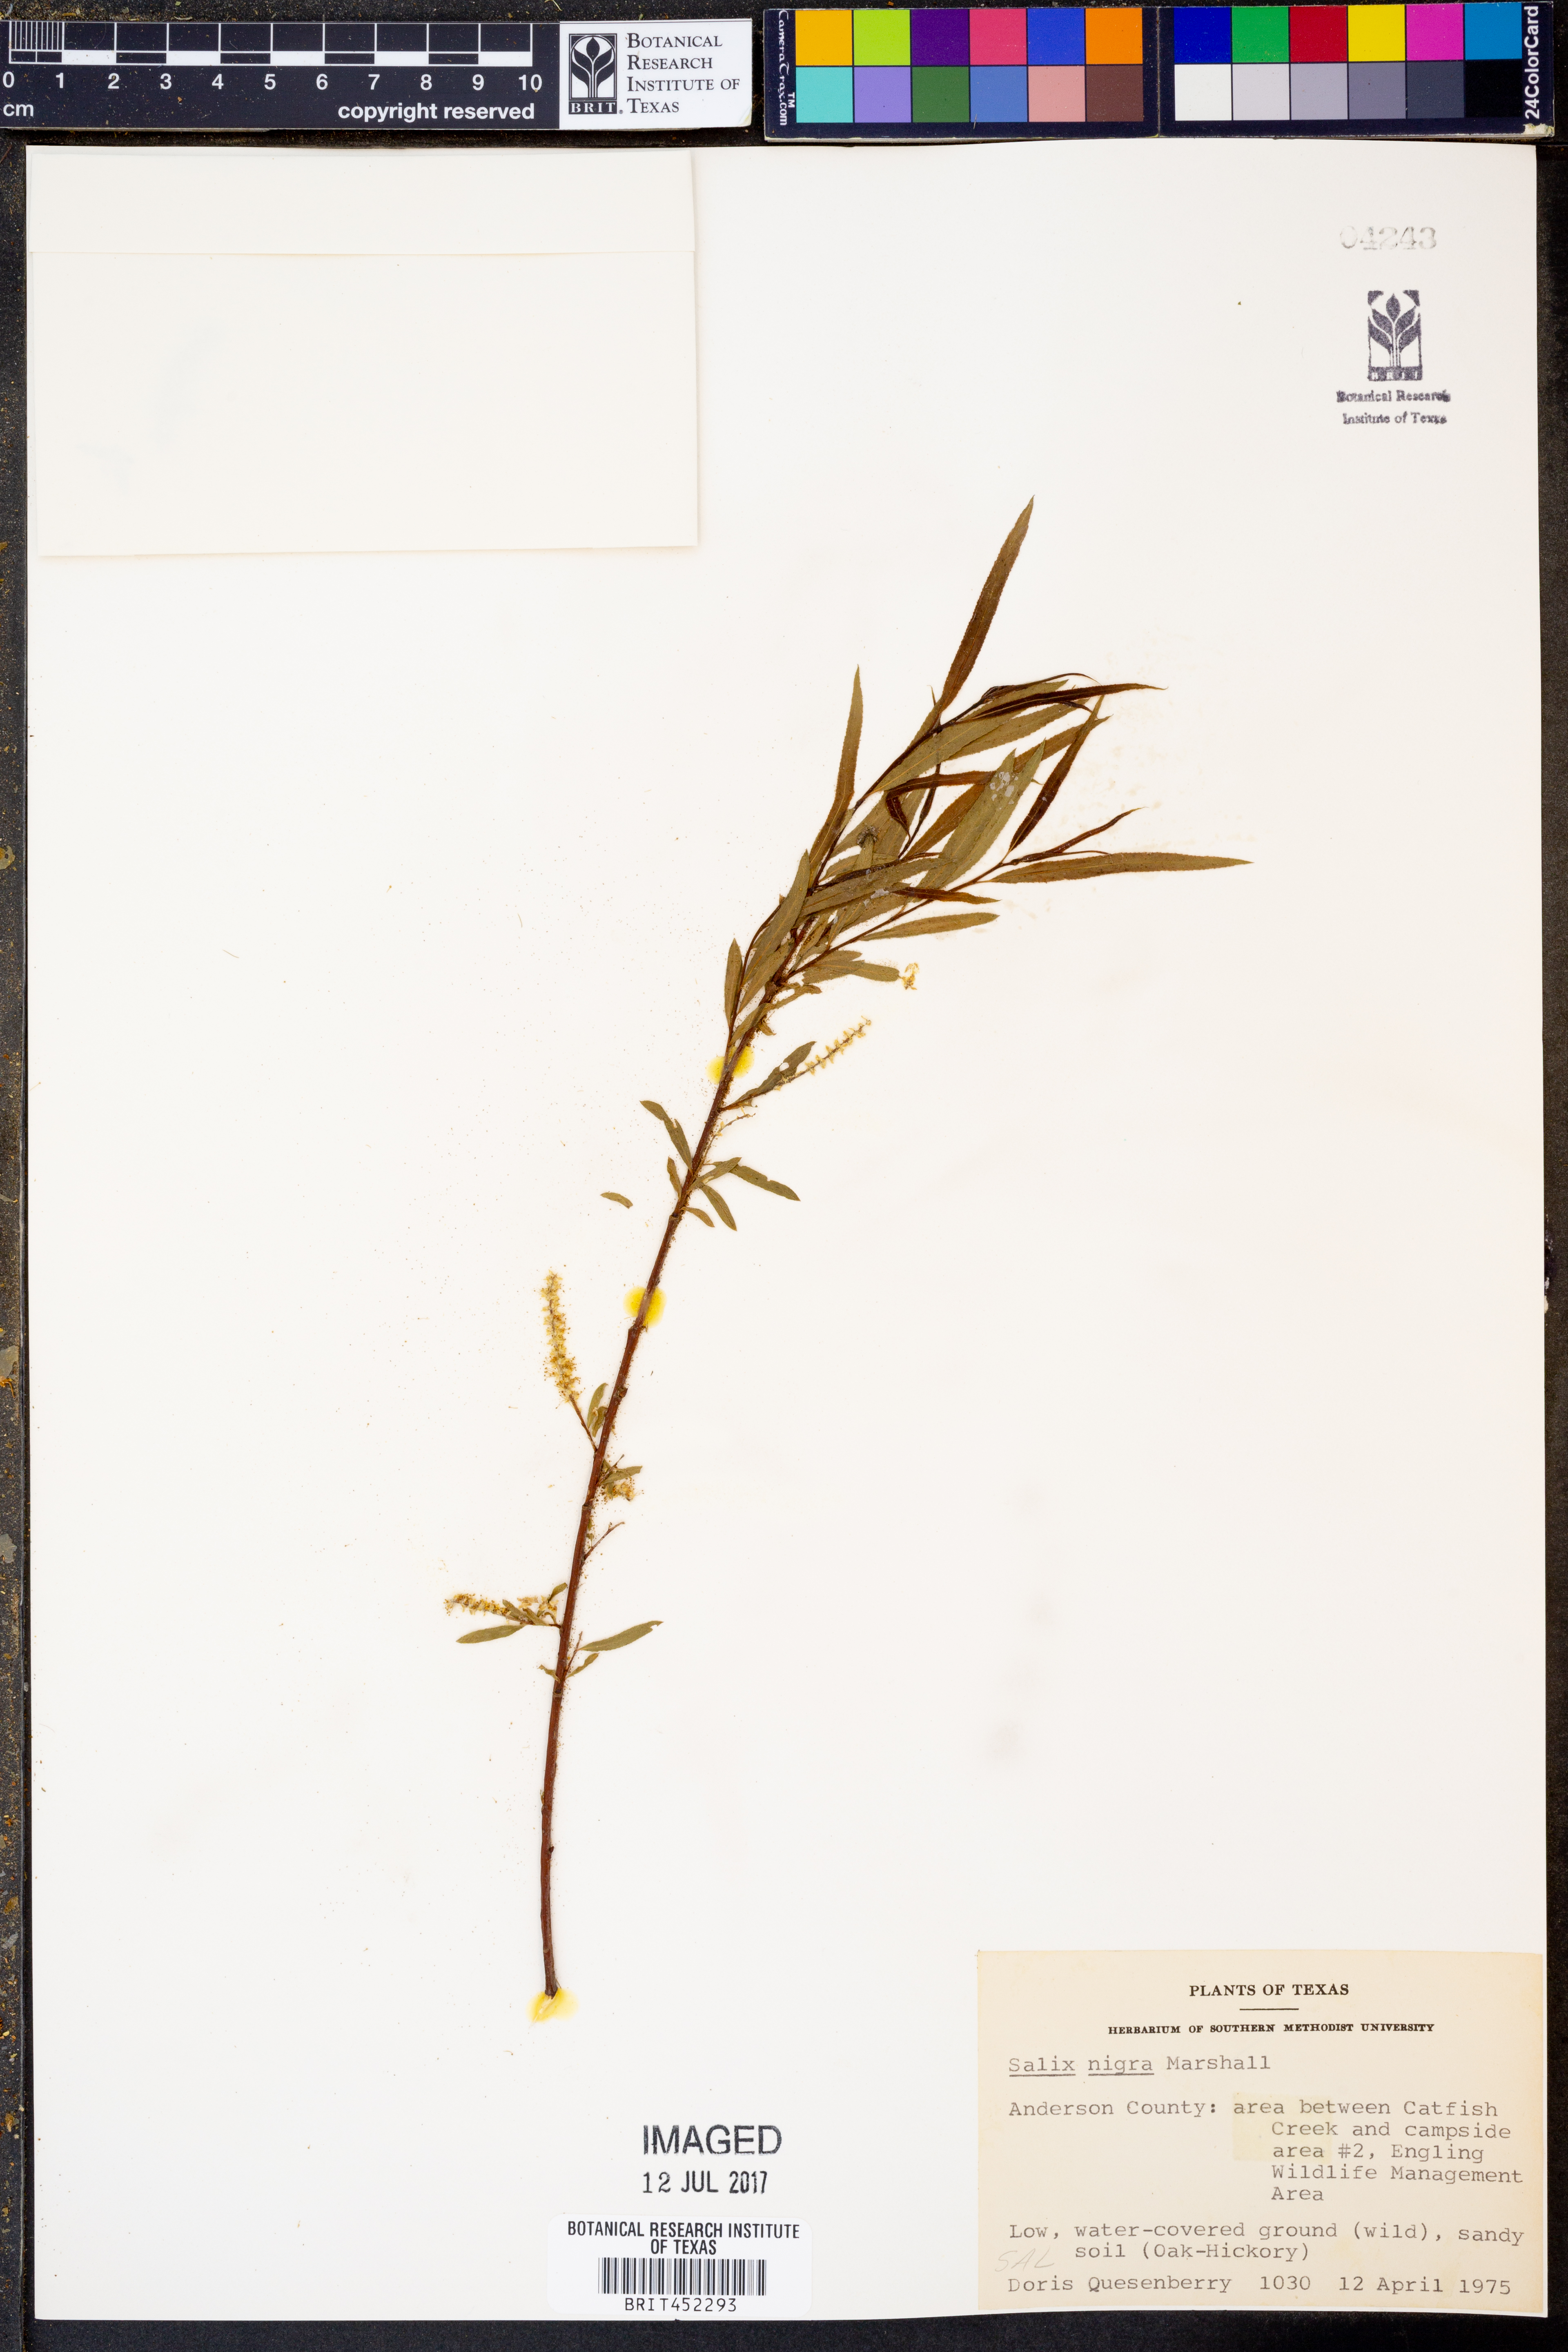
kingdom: Plantae
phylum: Tracheophyta
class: Magnoliopsida
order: Malpighiales
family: Salicaceae
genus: Salix
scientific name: Salix nigra
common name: Black willow
